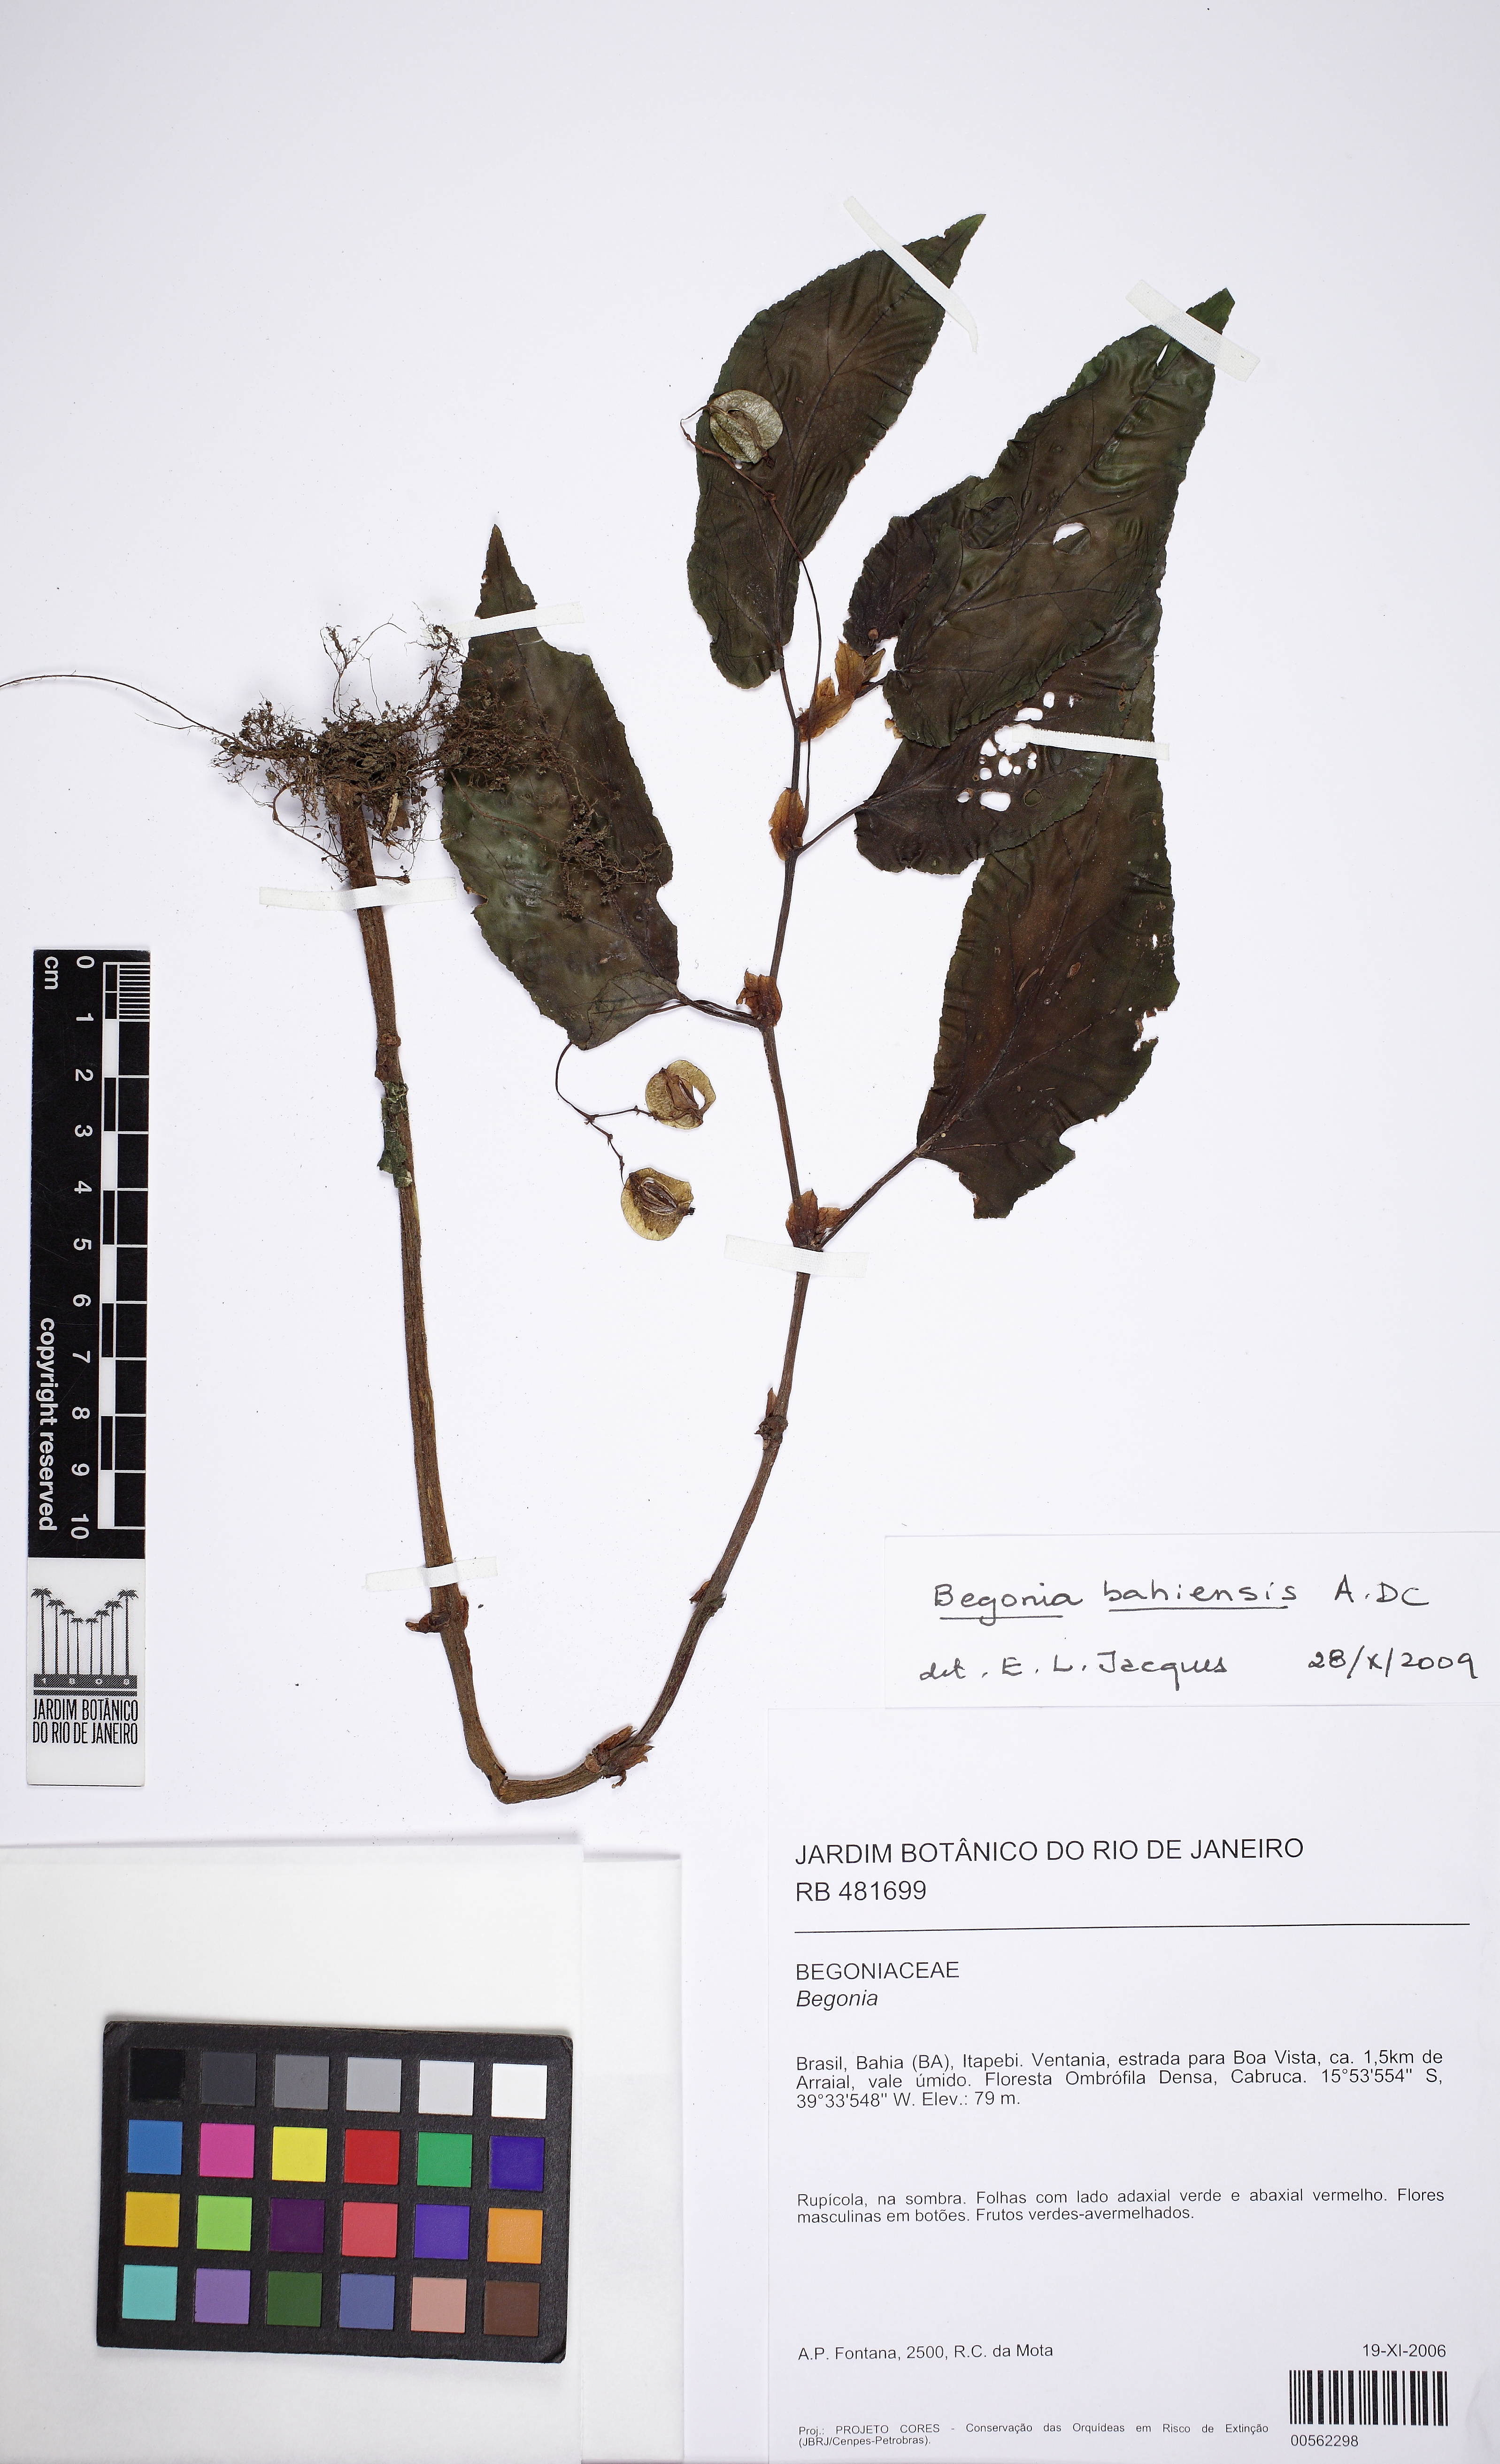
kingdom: Plantae
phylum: Tracheophyta
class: Magnoliopsida
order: Cucurbitales
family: Begoniaceae
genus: Begonia
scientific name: Begonia bahiensis
